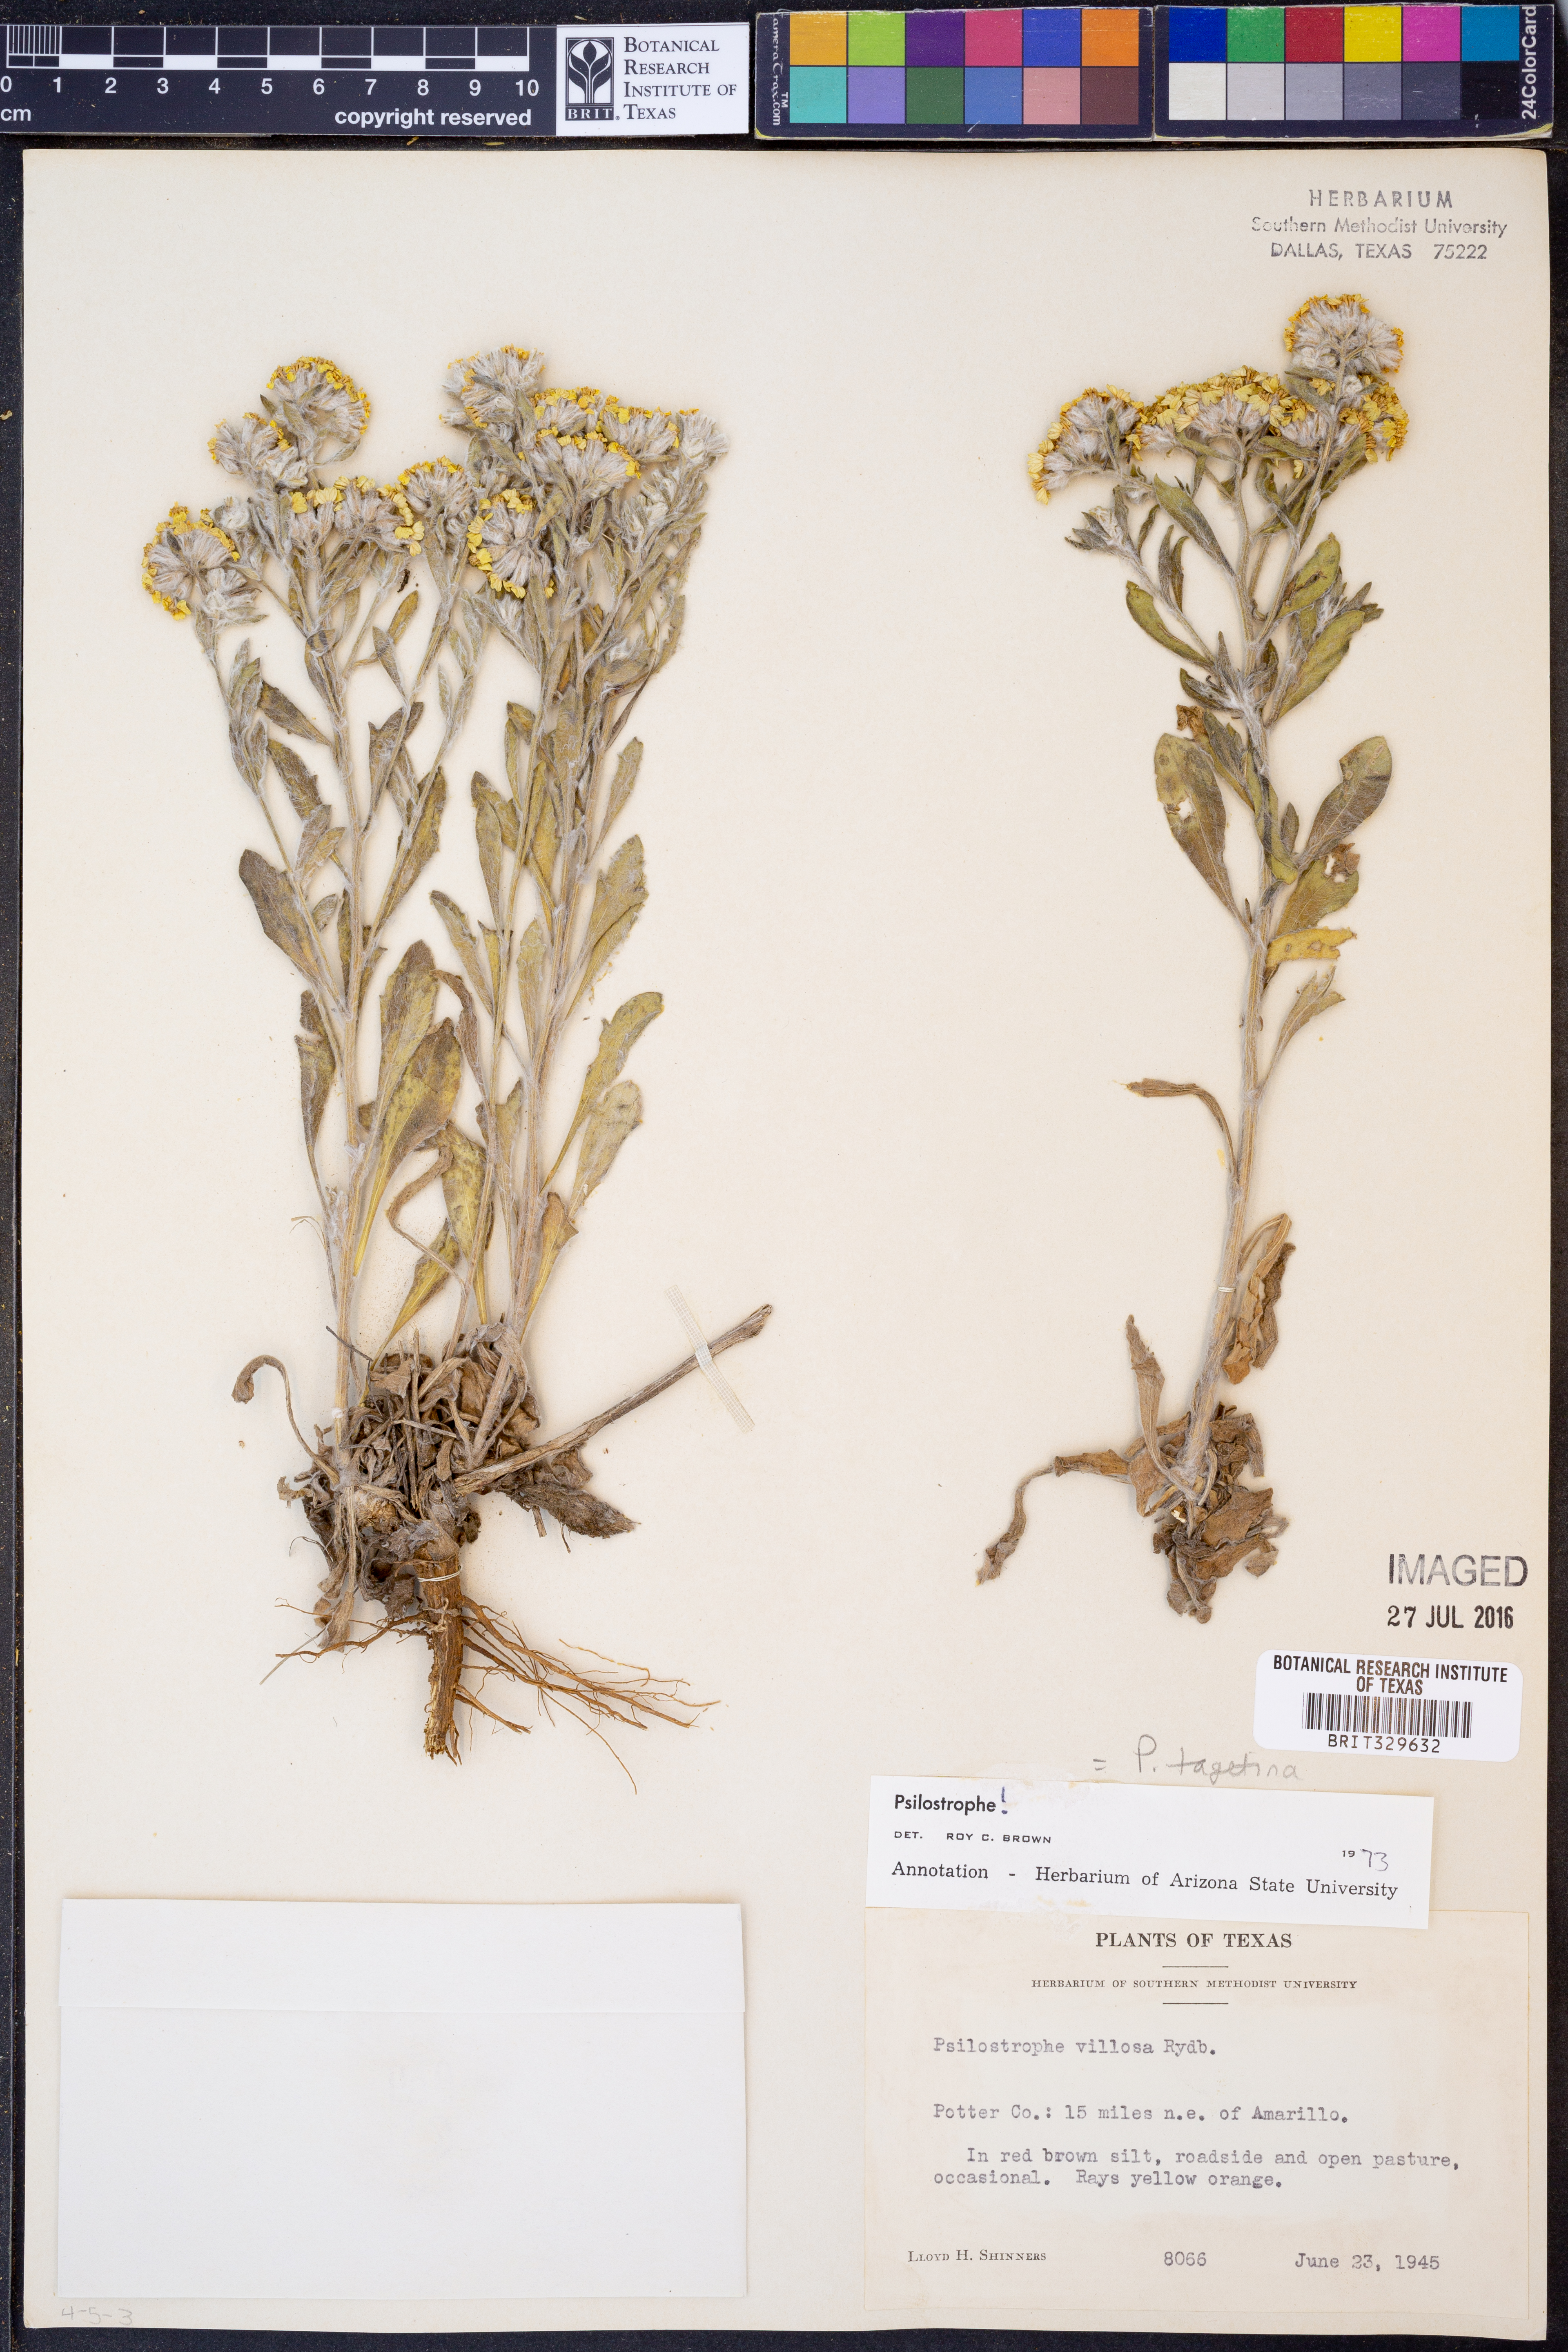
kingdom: Plantae
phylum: Tracheophyta
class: Magnoliopsida
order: Asterales
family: Asteraceae
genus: Psilostrophe
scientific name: Psilostrophe tagetina
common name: Marigold paper-flower
